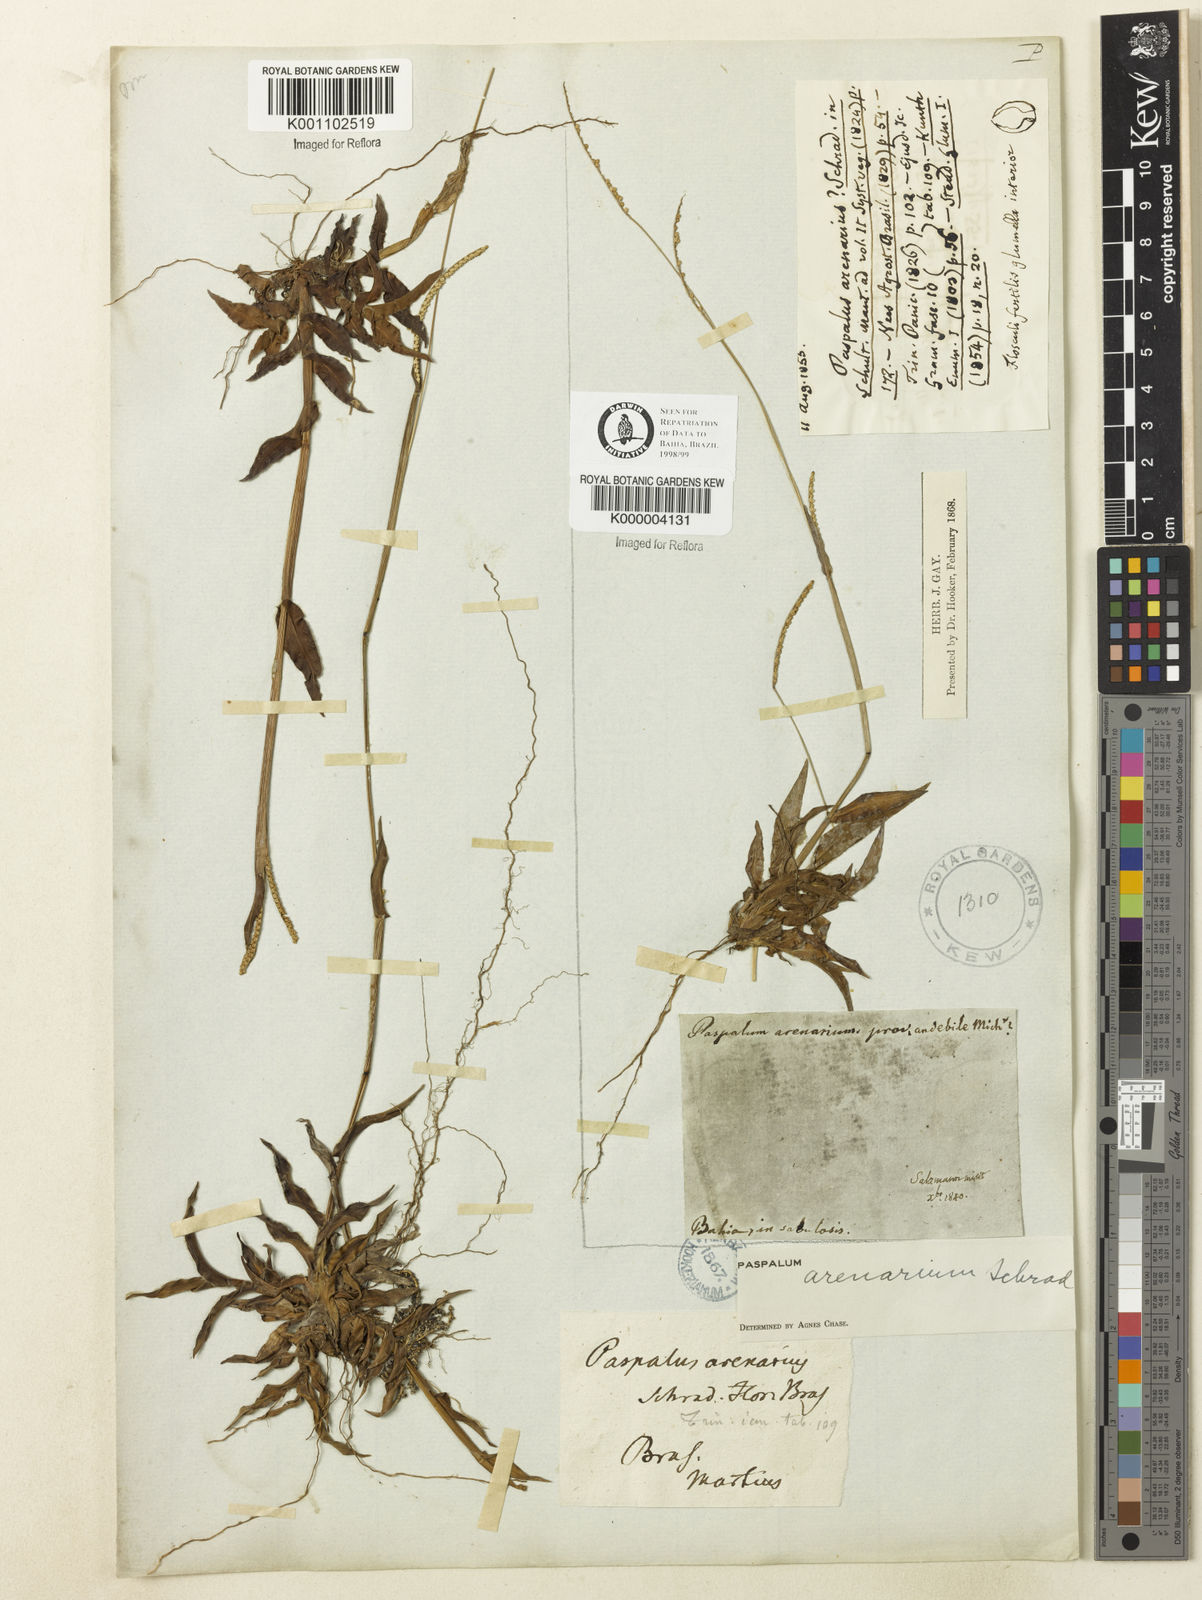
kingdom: Plantae
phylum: Tracheophyta
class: Liliopsida
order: Poales
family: Poaceae
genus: Paspalum
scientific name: Paspalum arenarium
